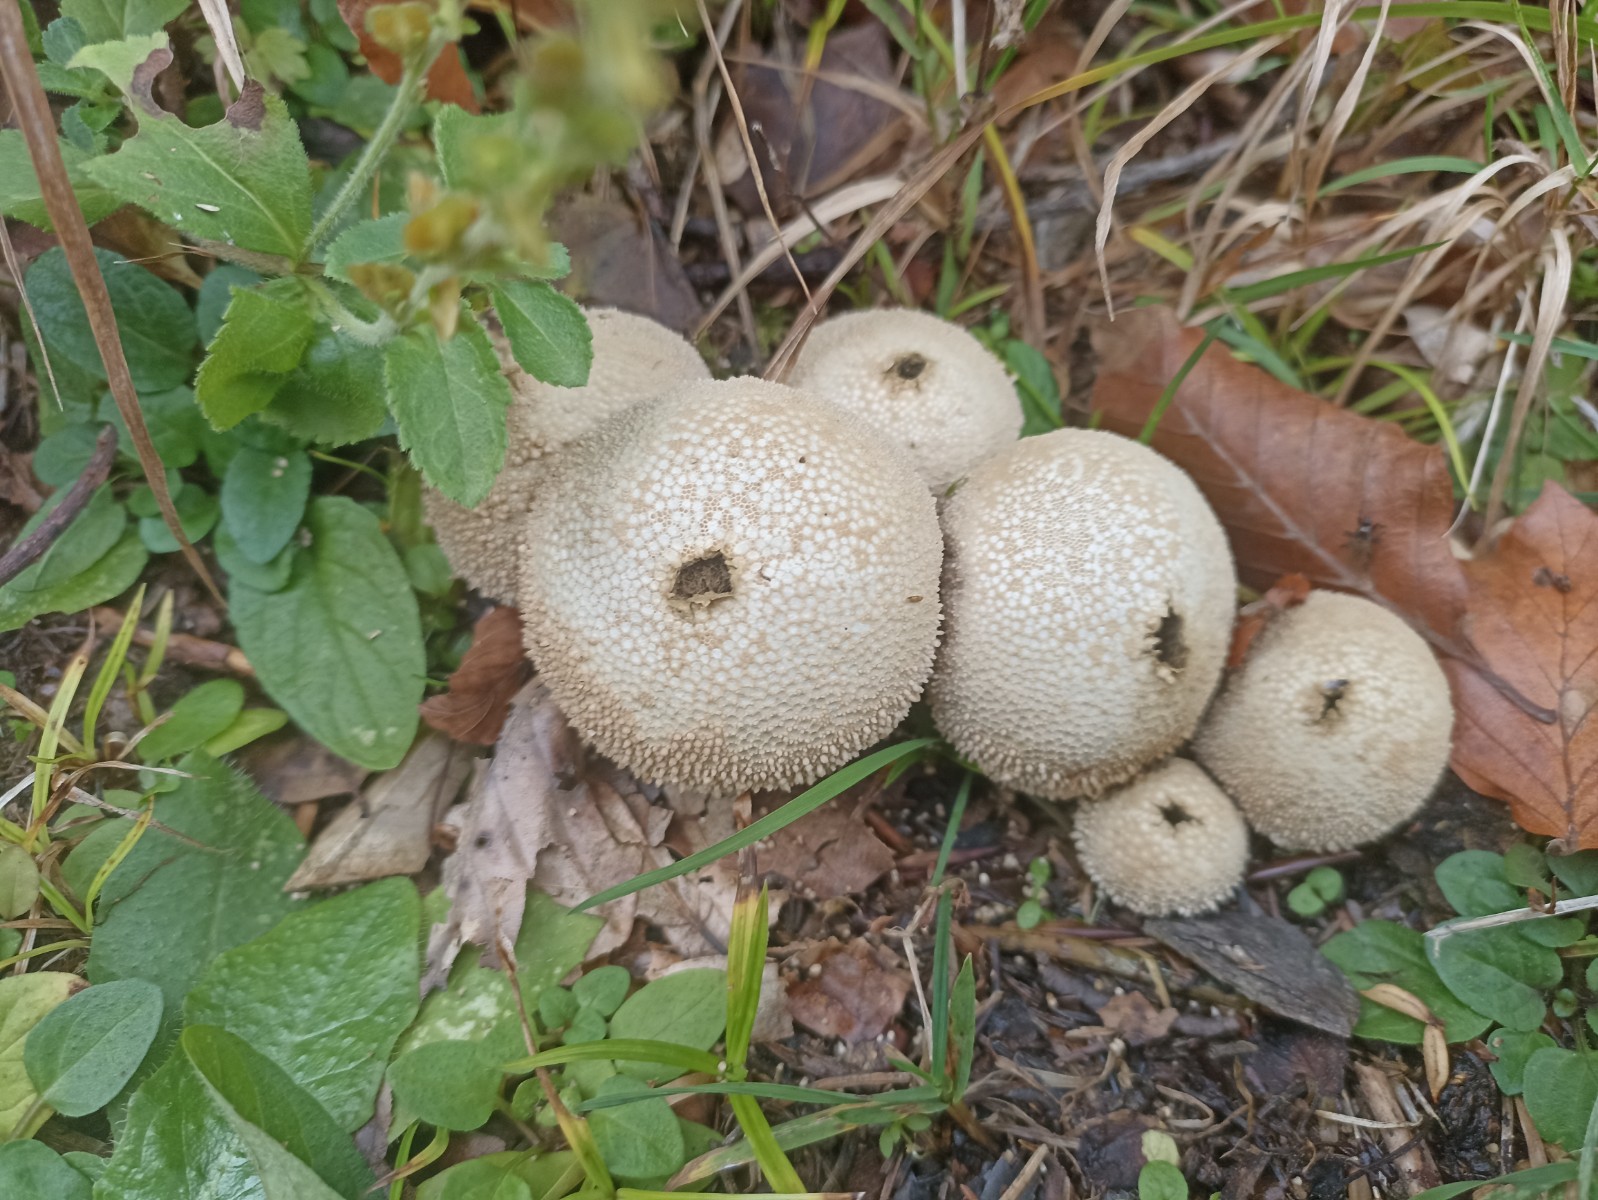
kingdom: Fungi
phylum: Basidiomycota
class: Agaricomycetes
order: Agaricales
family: Lycoperdaceae
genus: Lycoperdon
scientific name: Lycoperdon perlatum
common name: krystal-støvbold
